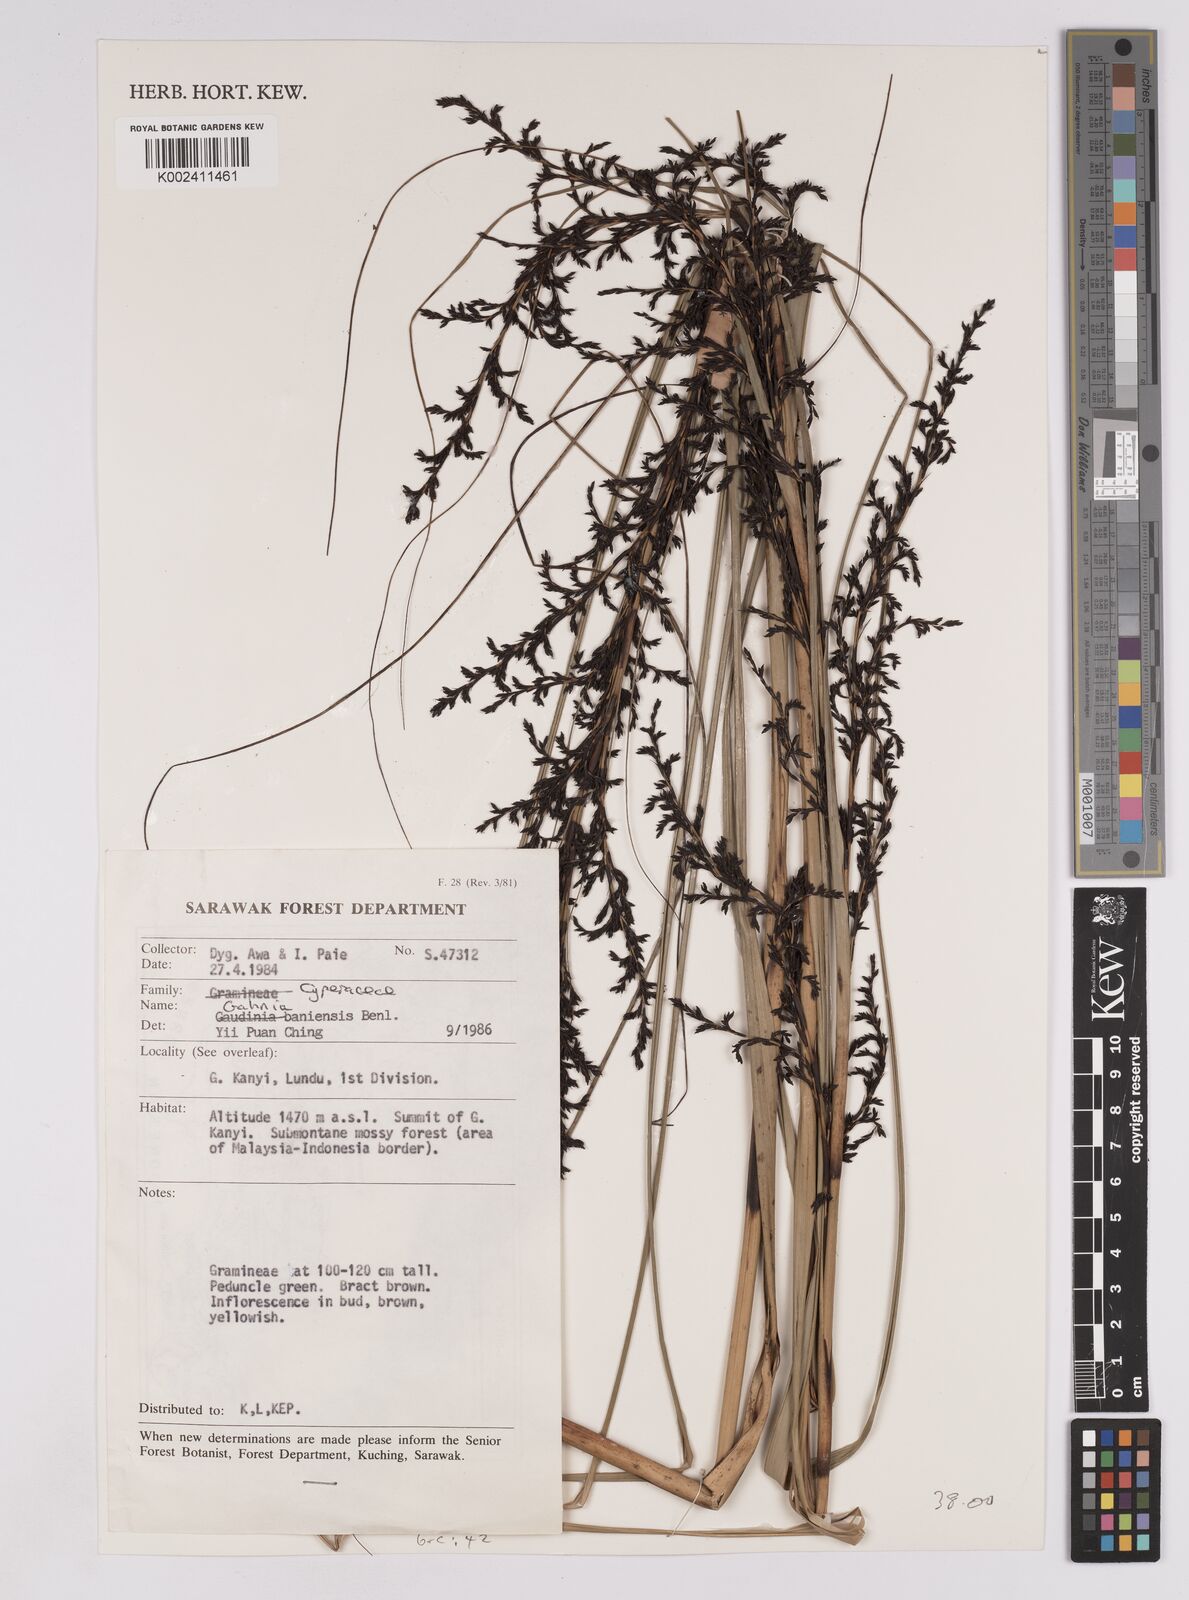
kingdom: Plantae
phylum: Tracheophyta
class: Liliopsida
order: Poales
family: Cyperaceae
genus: Gahnia
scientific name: Gahnia baniensis
